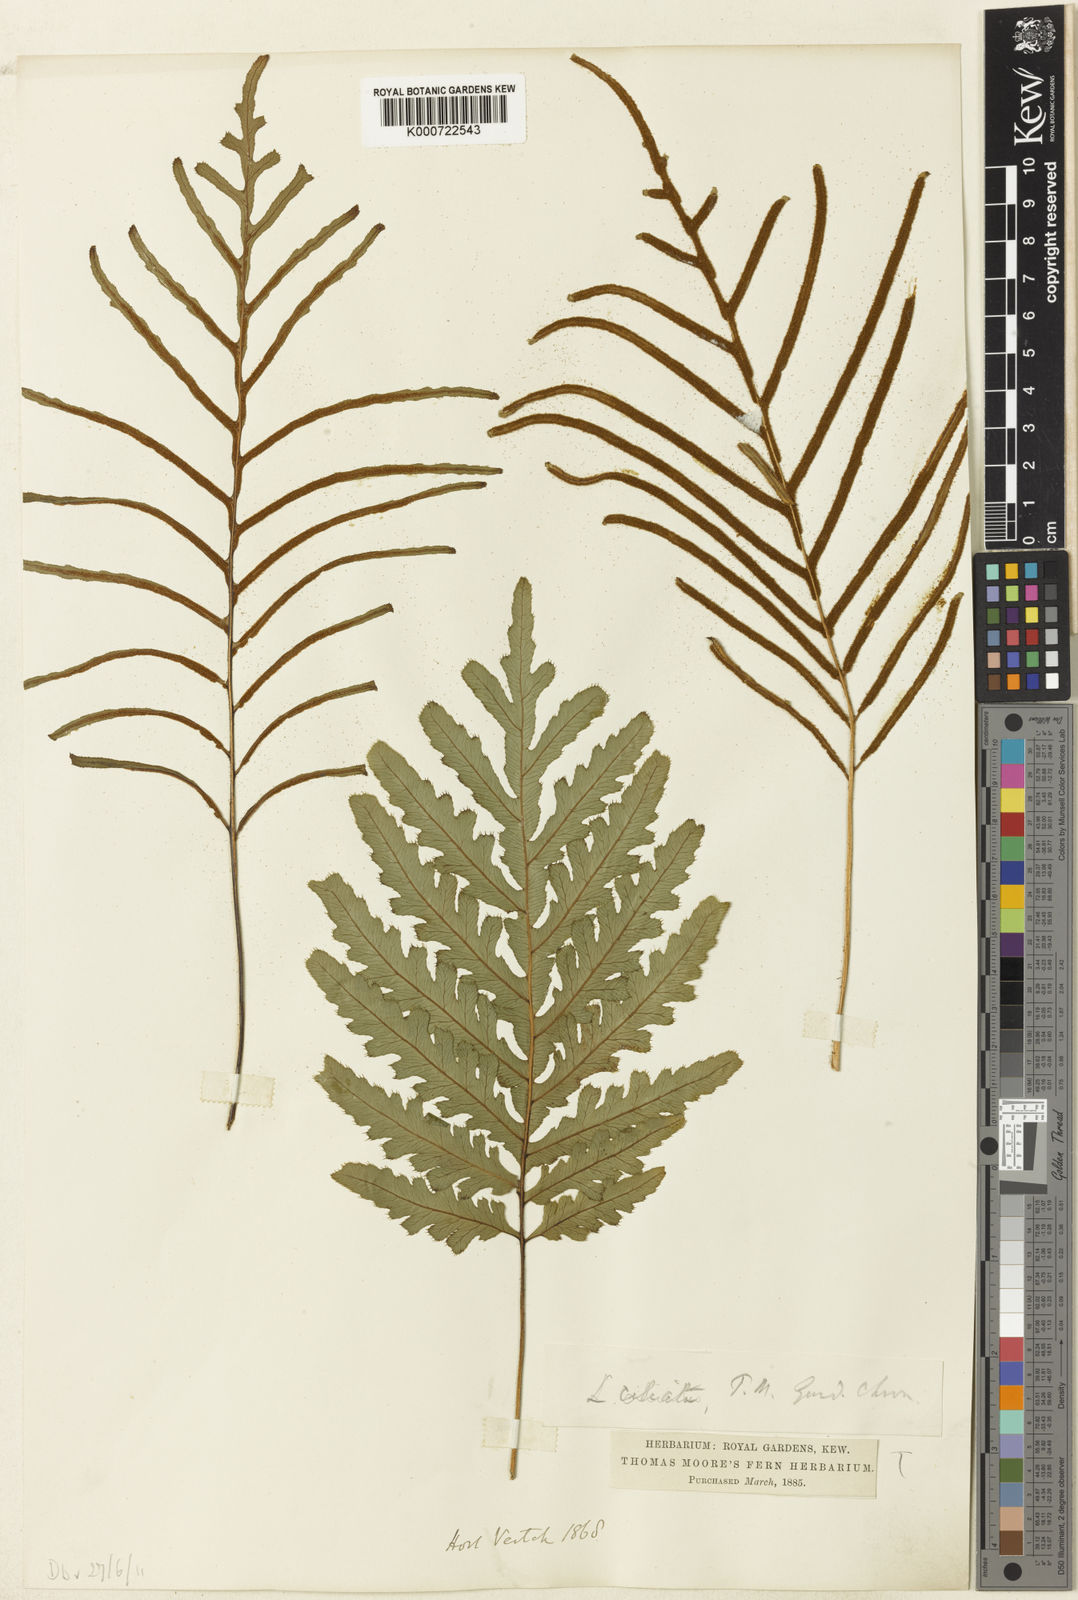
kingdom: Plantae
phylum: Tracheophyta
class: Polypodiopsida
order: Polypodiales
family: Blechnaceae
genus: Blechnum
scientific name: Blechnum irregulare
